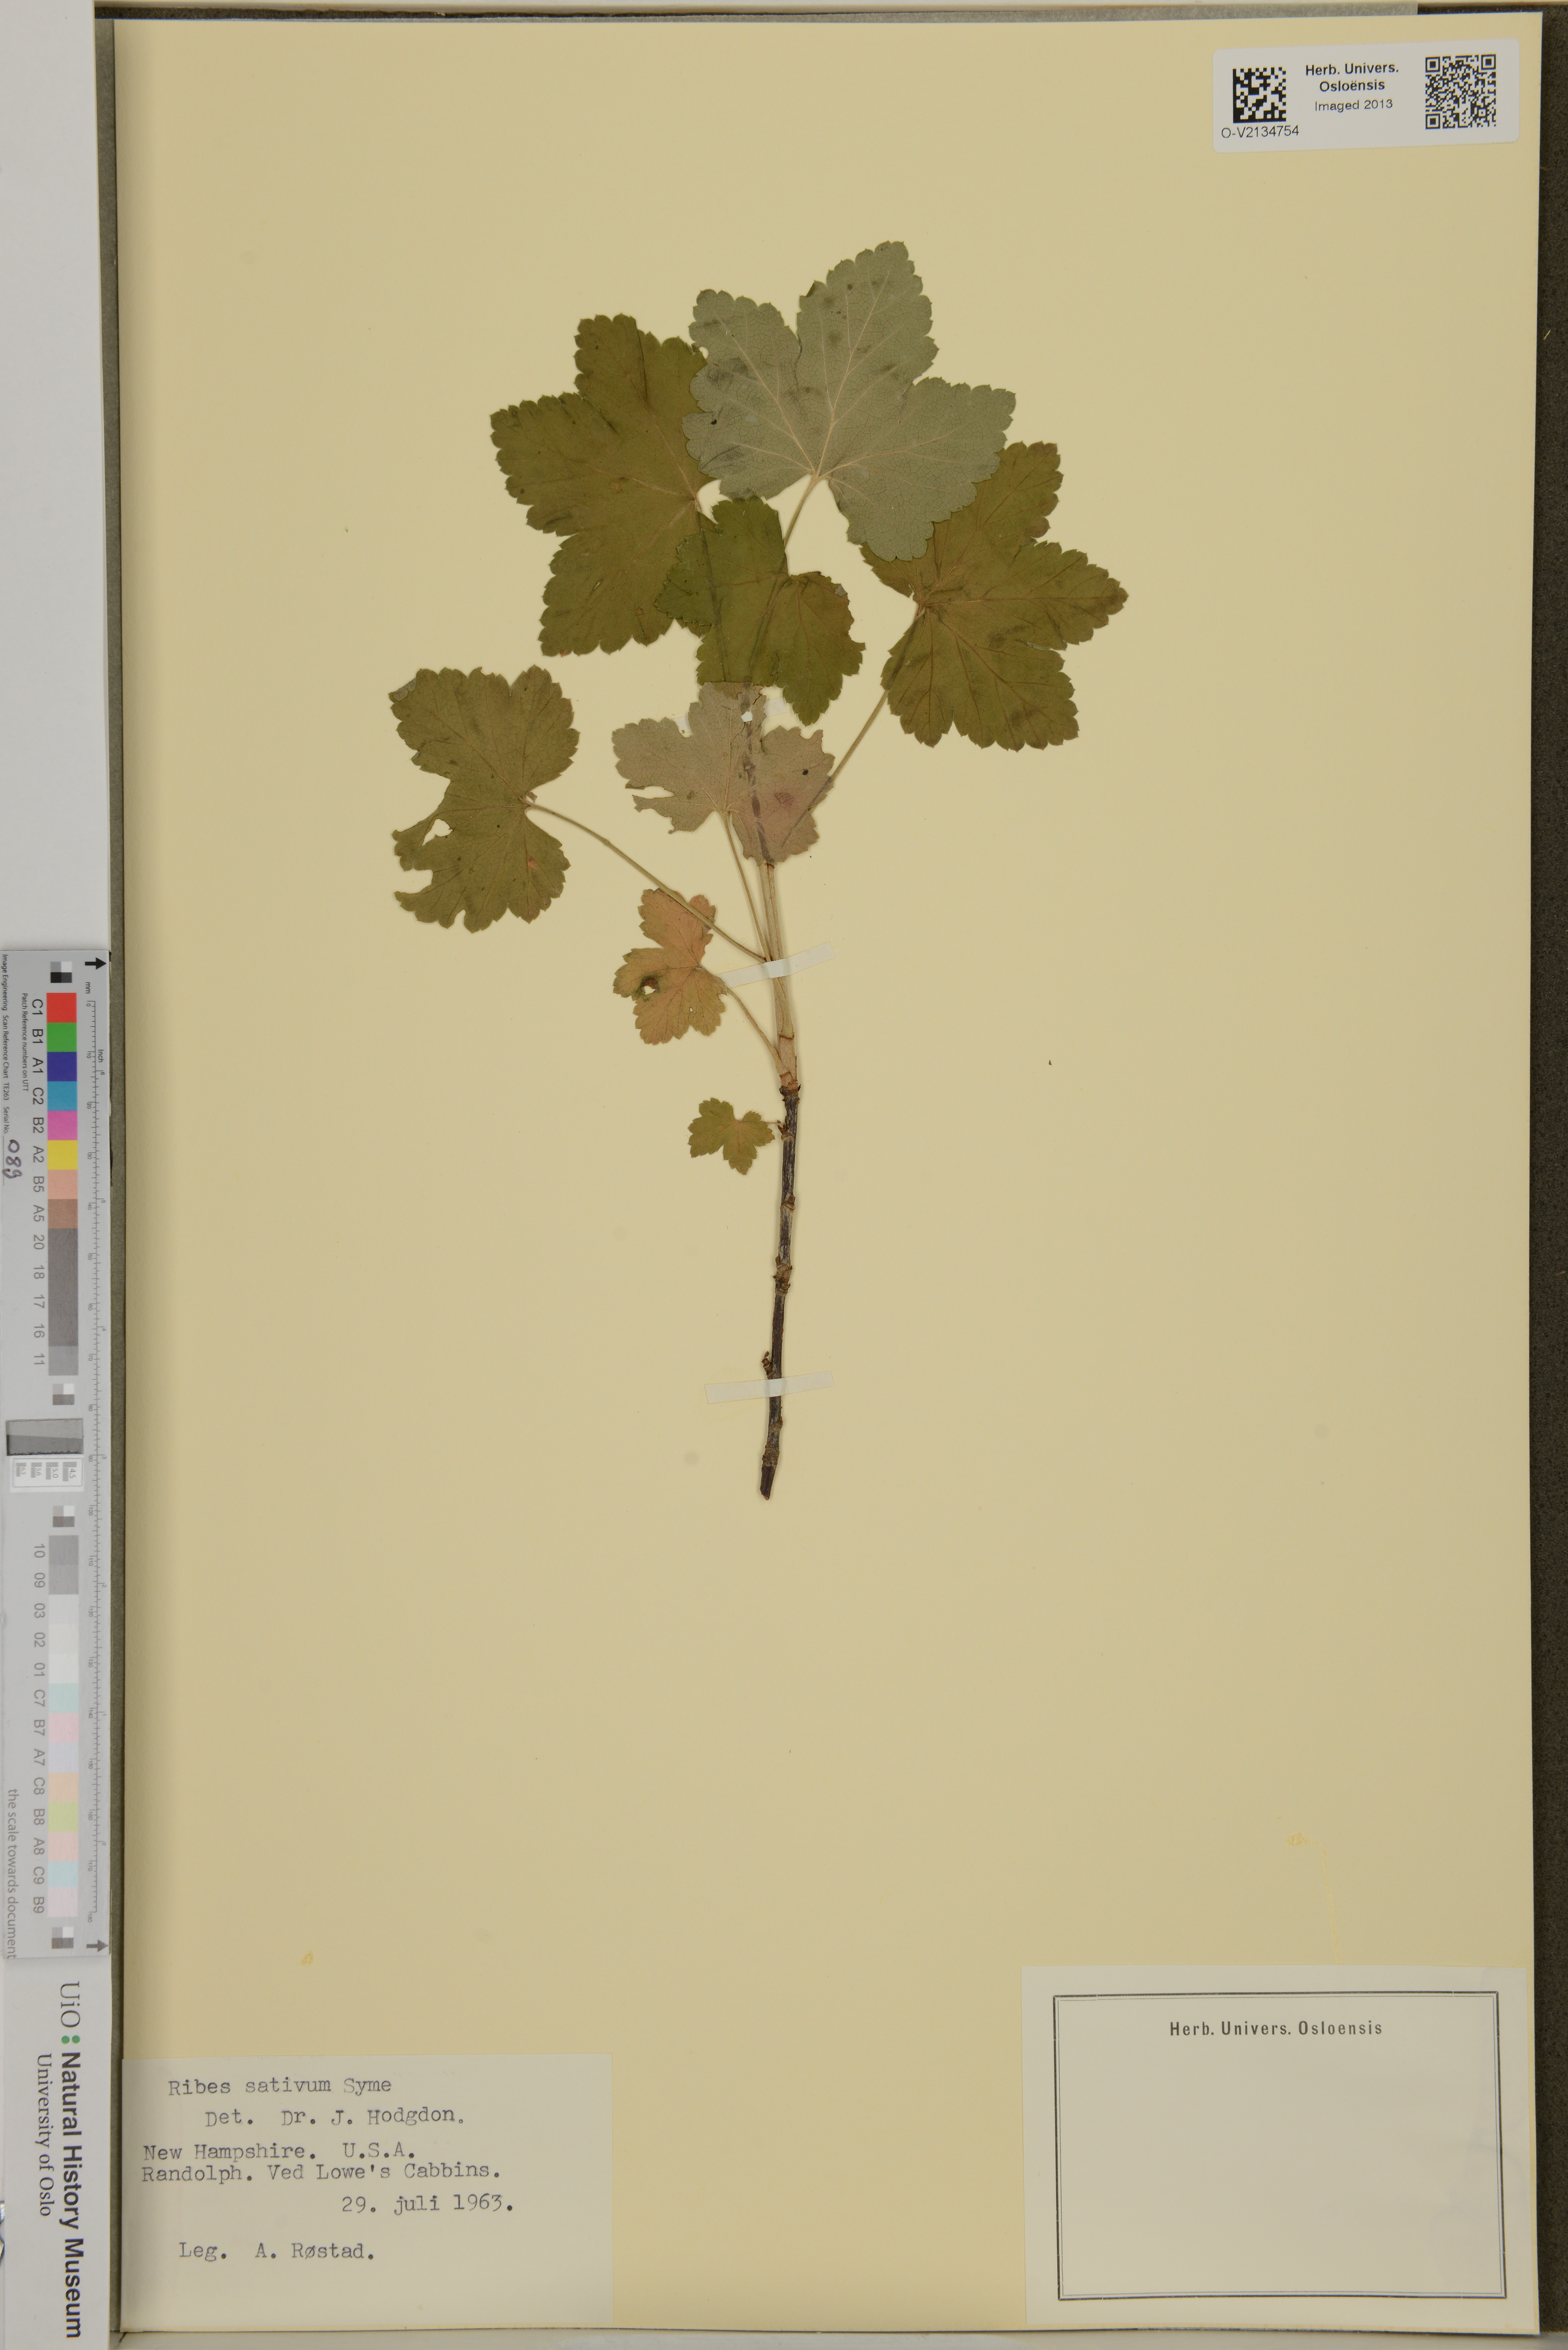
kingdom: Plantae
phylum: Tracheophyta
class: Magnoliopsida
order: Saxifragales
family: Grossulariaceae
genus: Ribes
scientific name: Ribes rubrum
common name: Red currant
